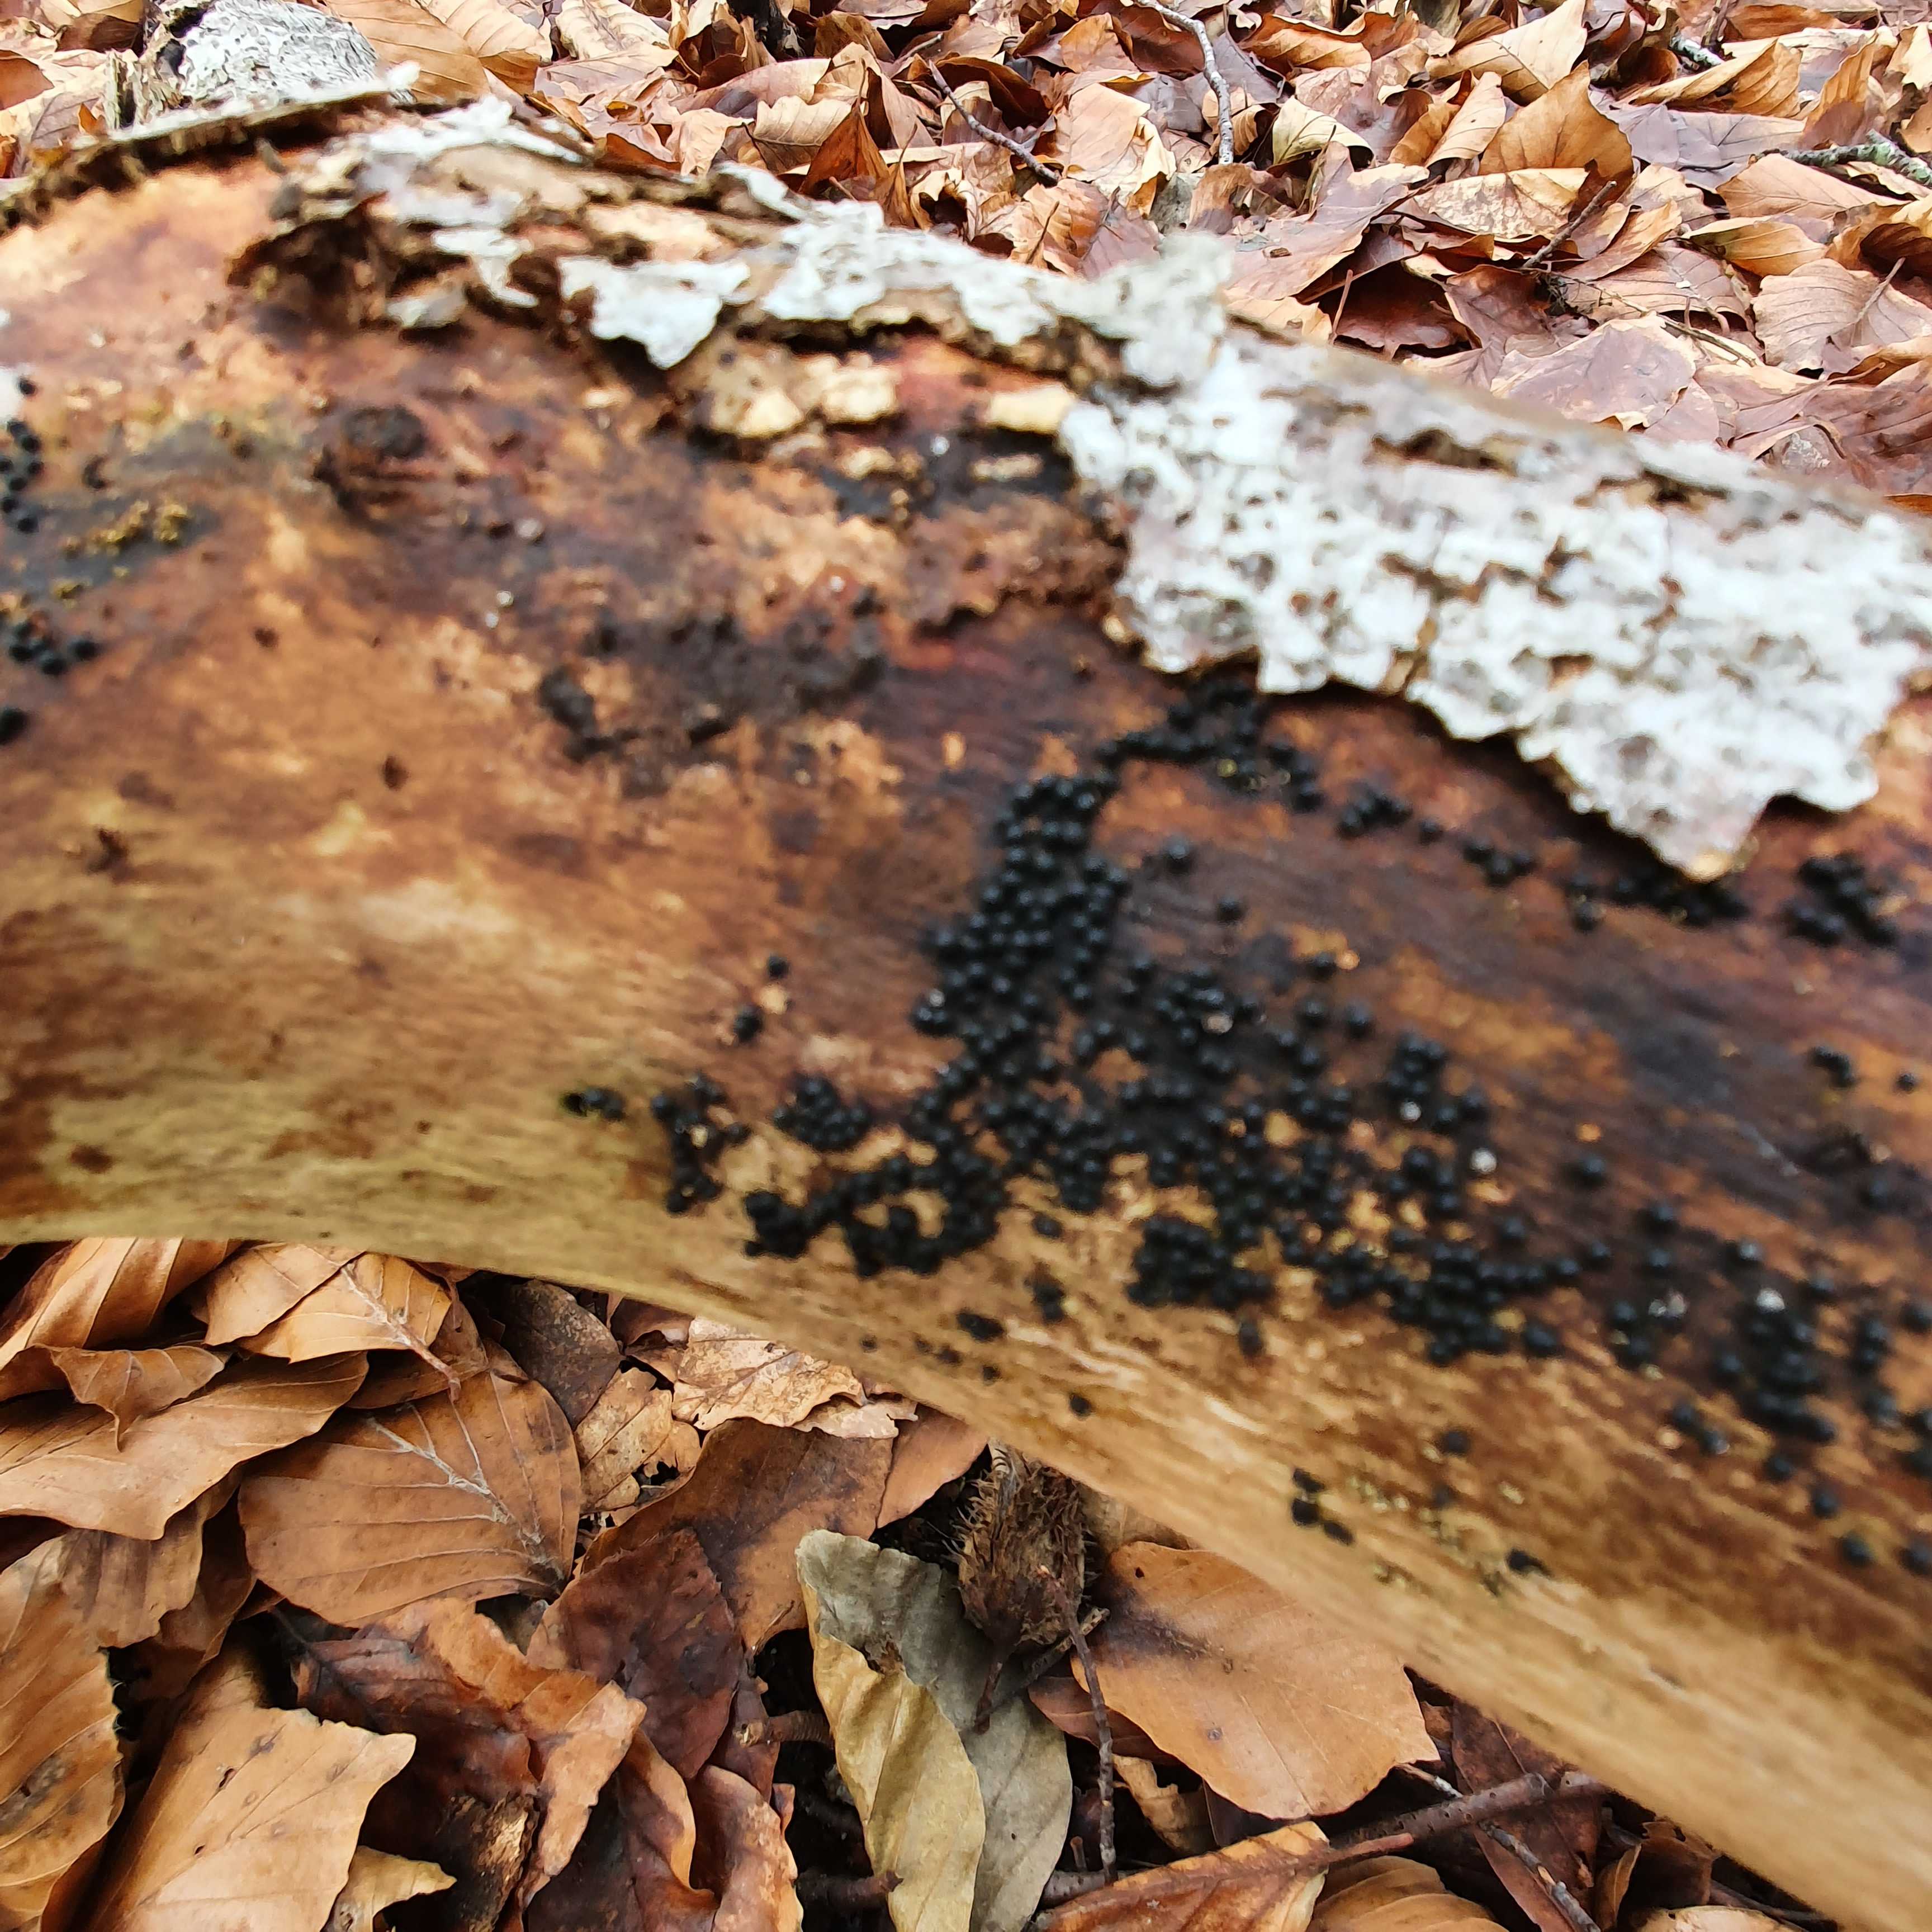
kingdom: Fungi
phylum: Ascomycota
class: Sordariomycetes
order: Xylariales
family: Xylariaceae
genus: Rosellinia
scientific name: Rosellinia marcucciana
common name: måtteløs kulkaviar
